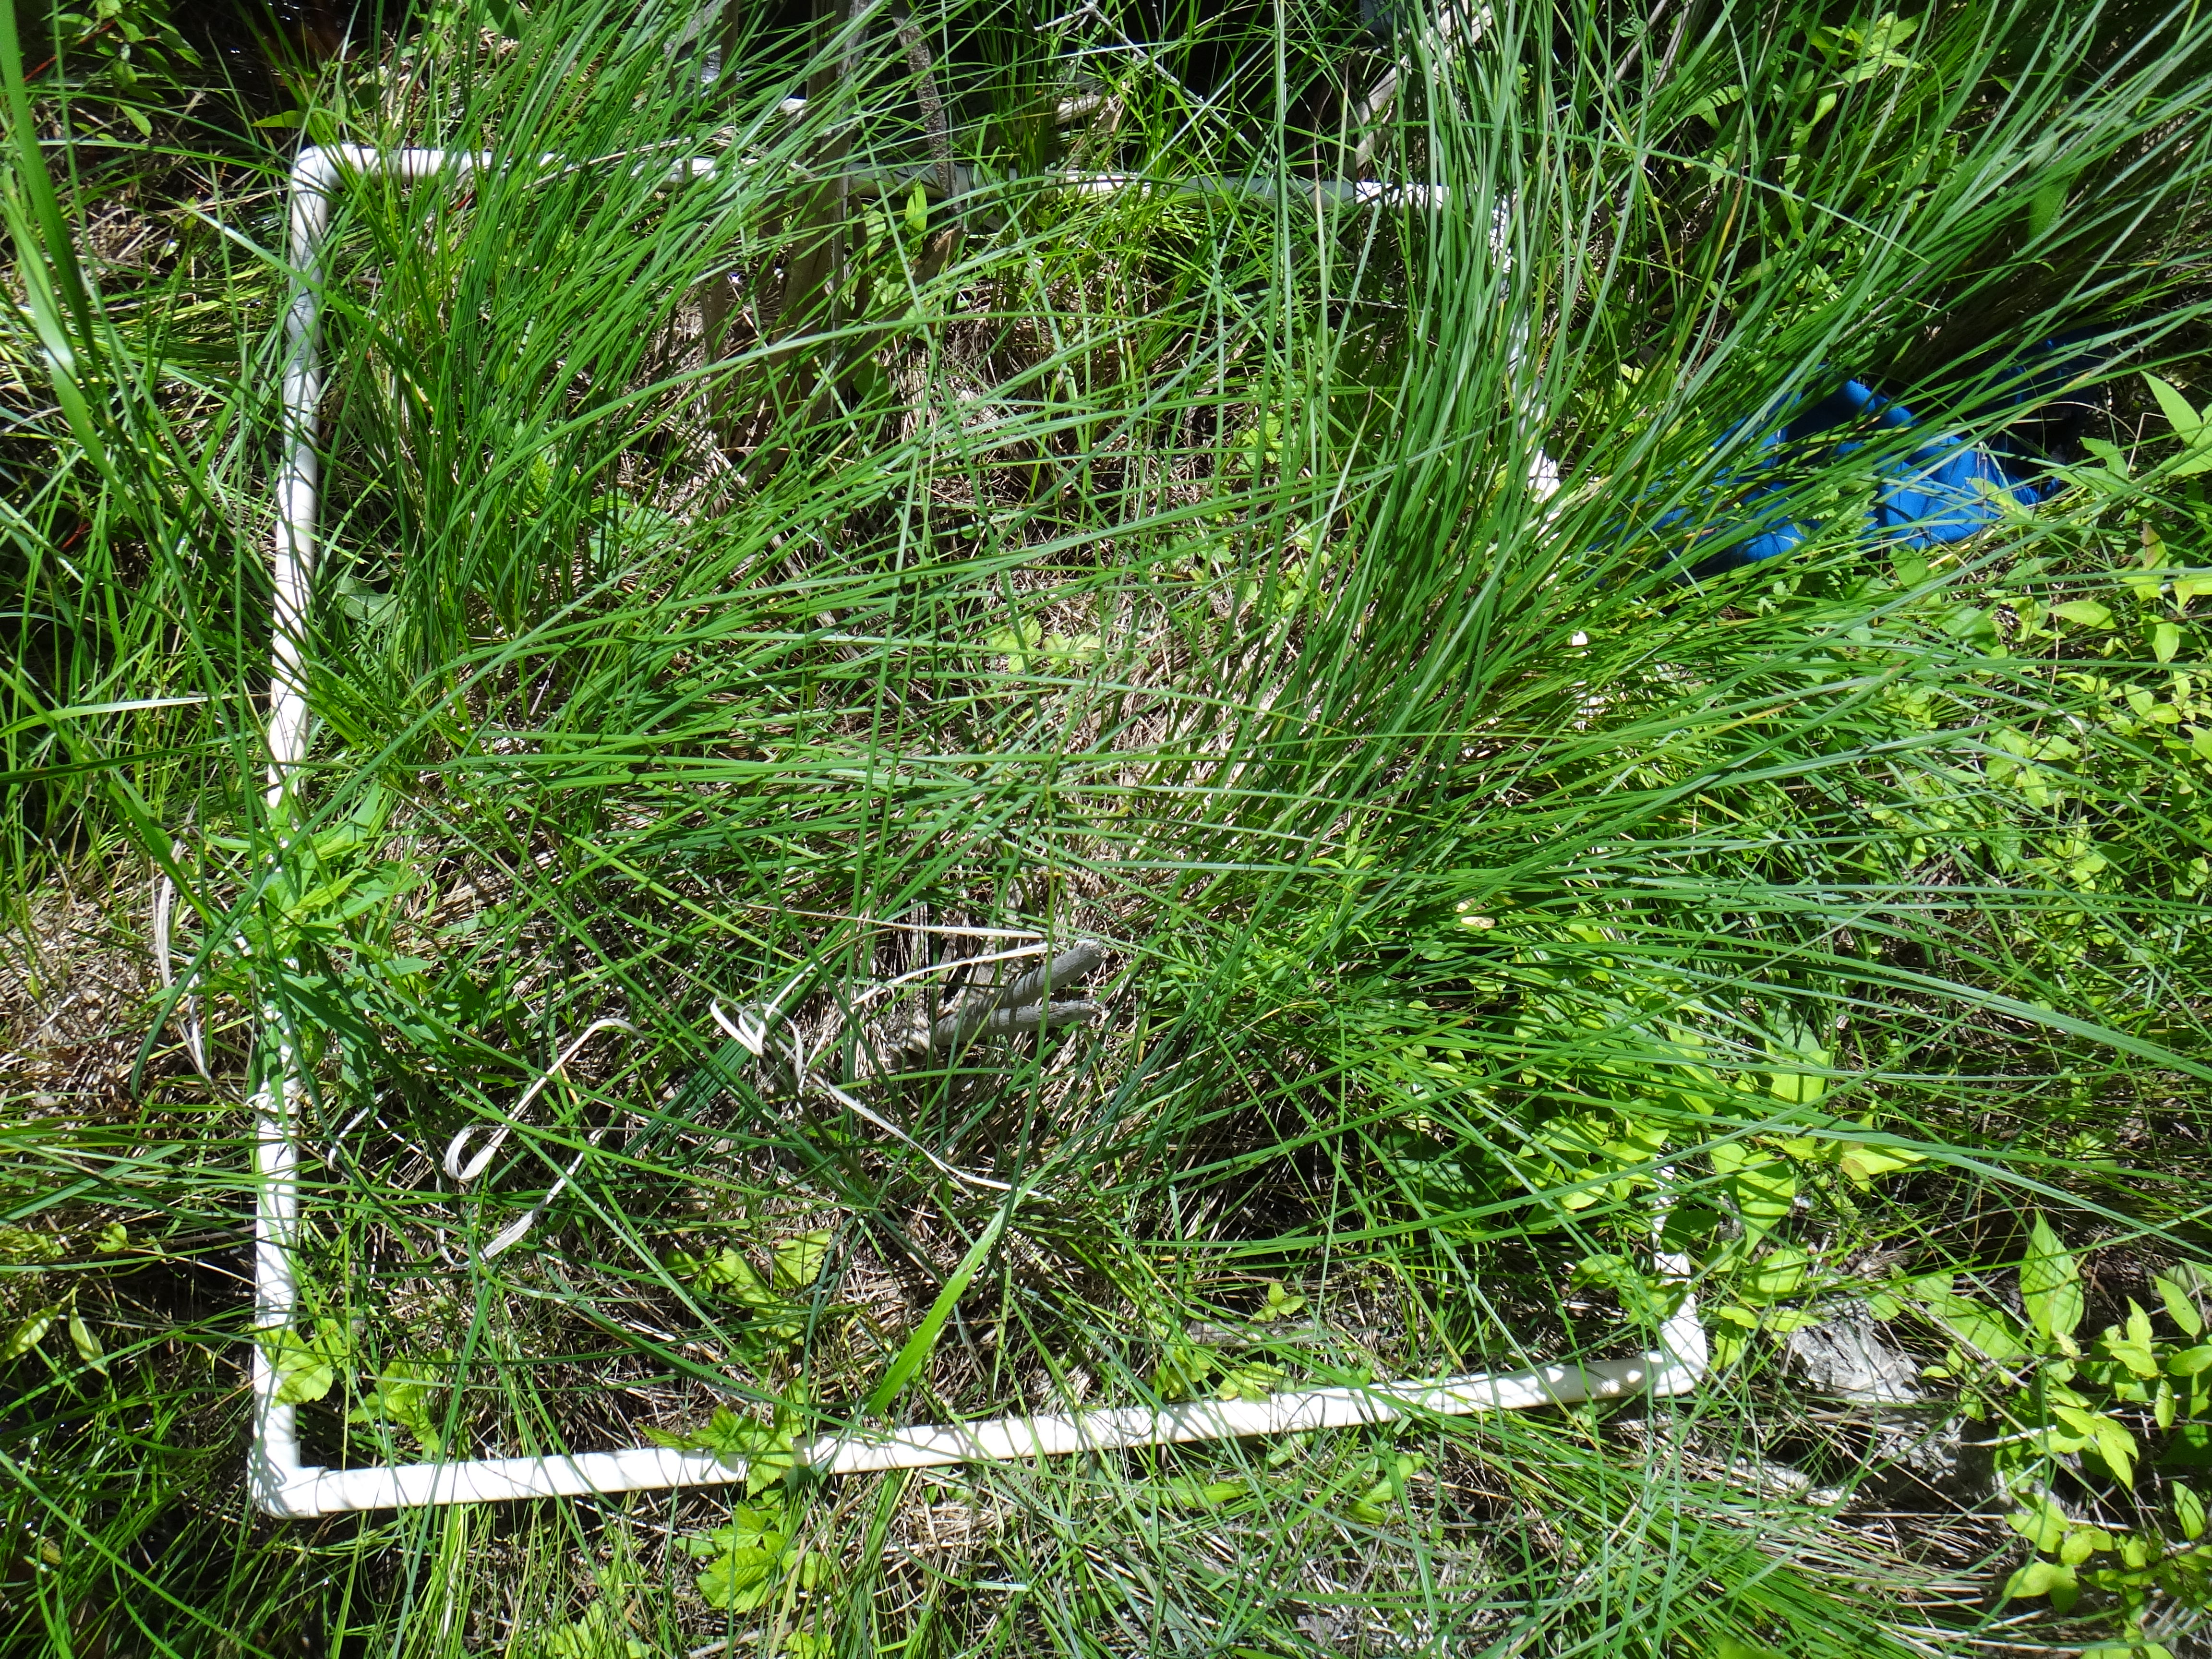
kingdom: Plantae
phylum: Tracheophyta
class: Magnoliopsida
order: Ericales
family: Primulaceae
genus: Lysimachia
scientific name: Lysimachia thyrsiflora
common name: Tufted loosestrife
